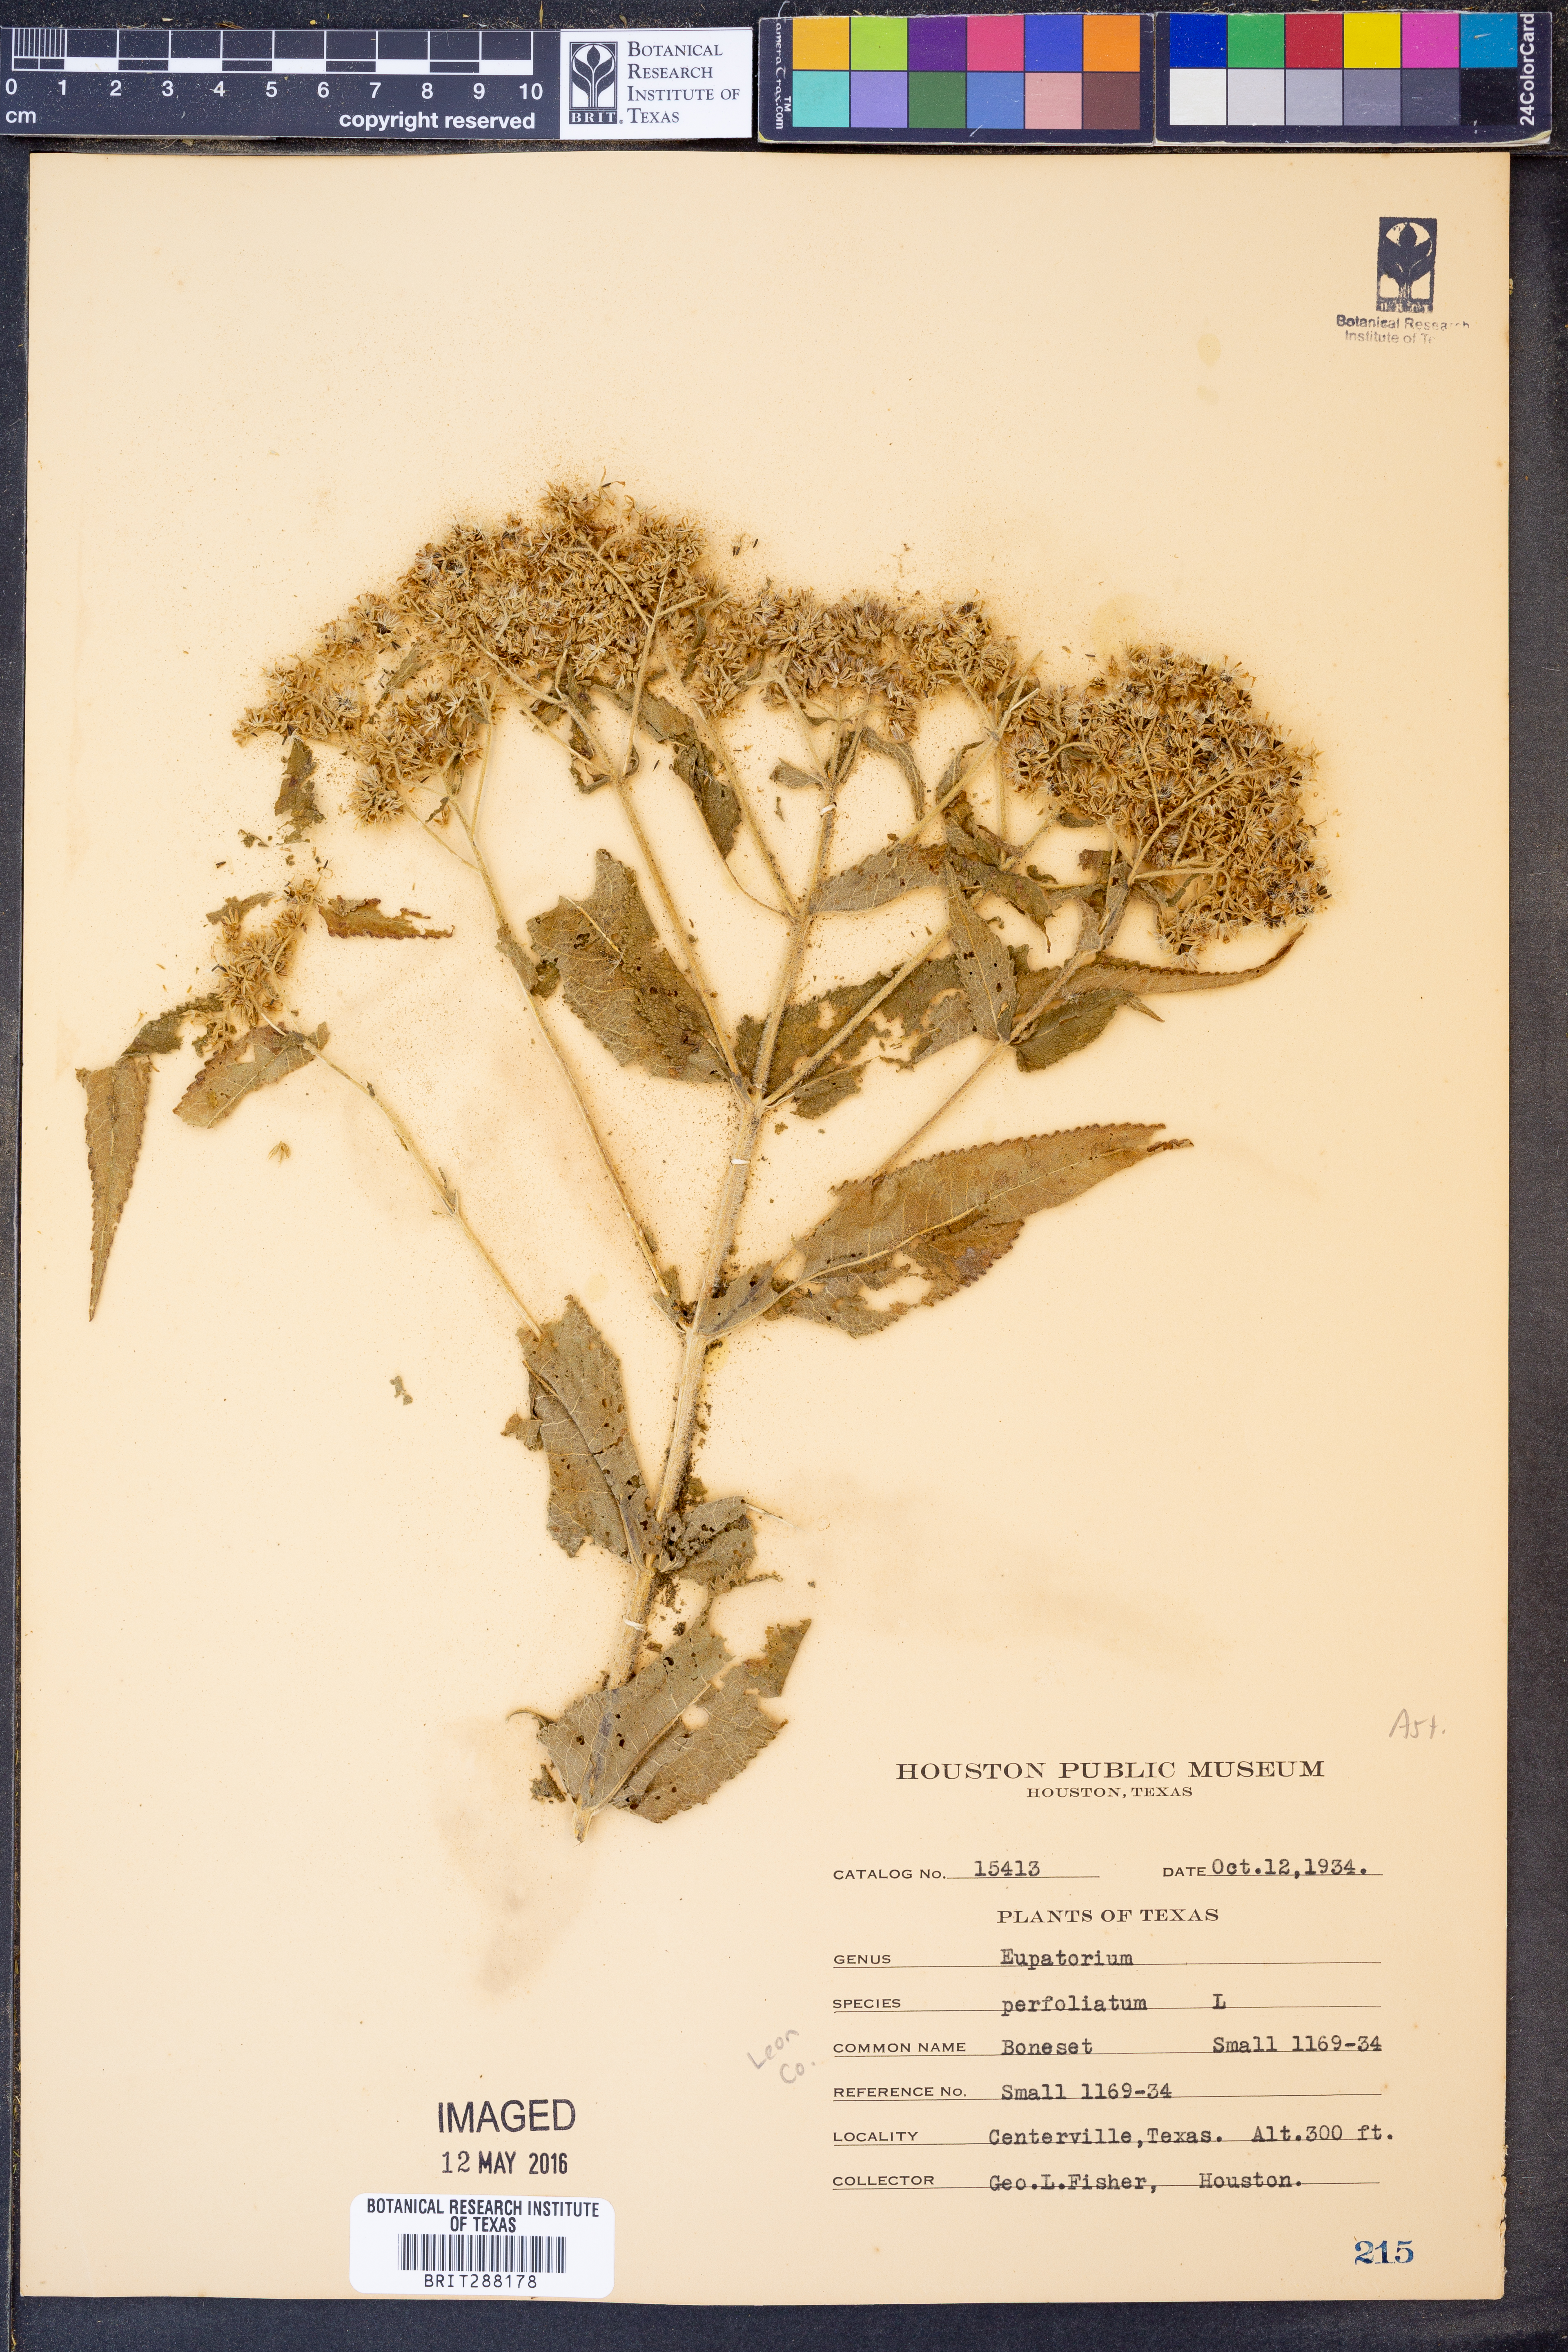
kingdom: Plantae
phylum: Tracheophyta
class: Magnoliopsida
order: Asterales
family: Asteraceae
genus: Eupatorium
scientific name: Eupatorium perfoliatum
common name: Boneset
